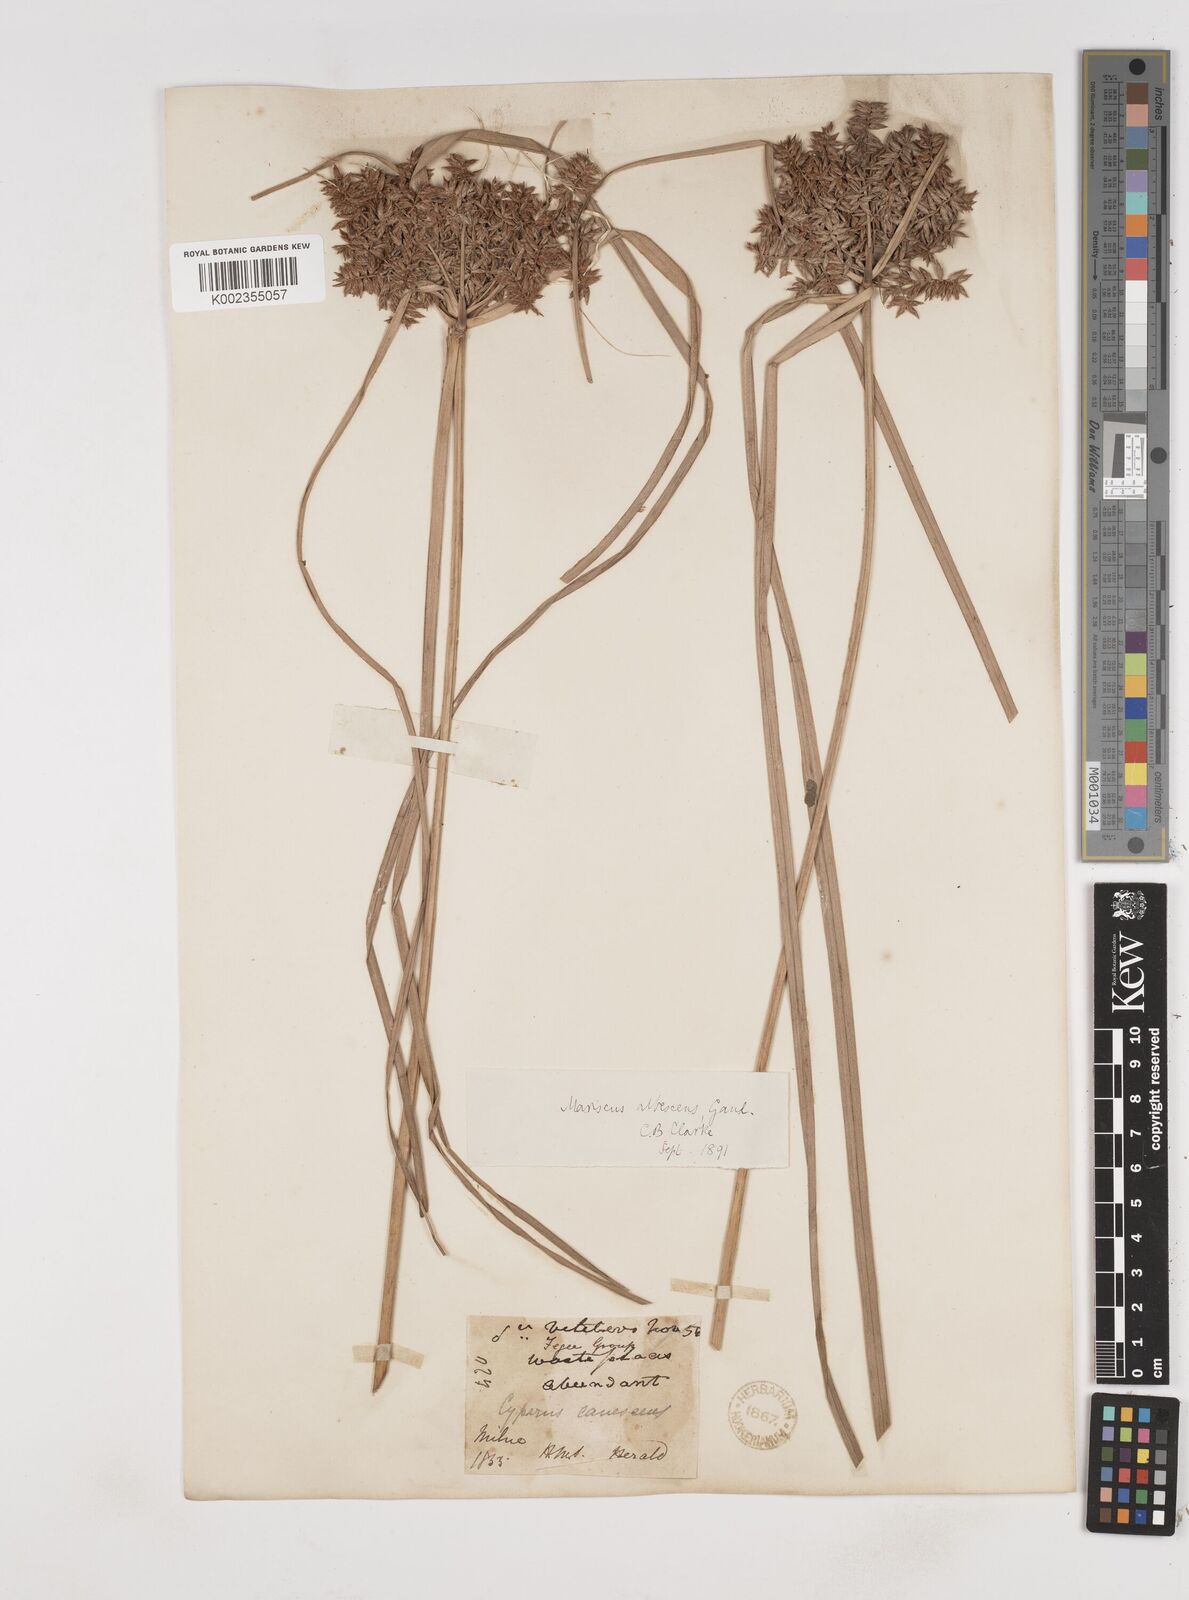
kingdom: Plantae
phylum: Tracheophyta
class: Liliopsida
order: Poales
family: Cyperaceae
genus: Cyperus
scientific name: Cyperus javanicus
